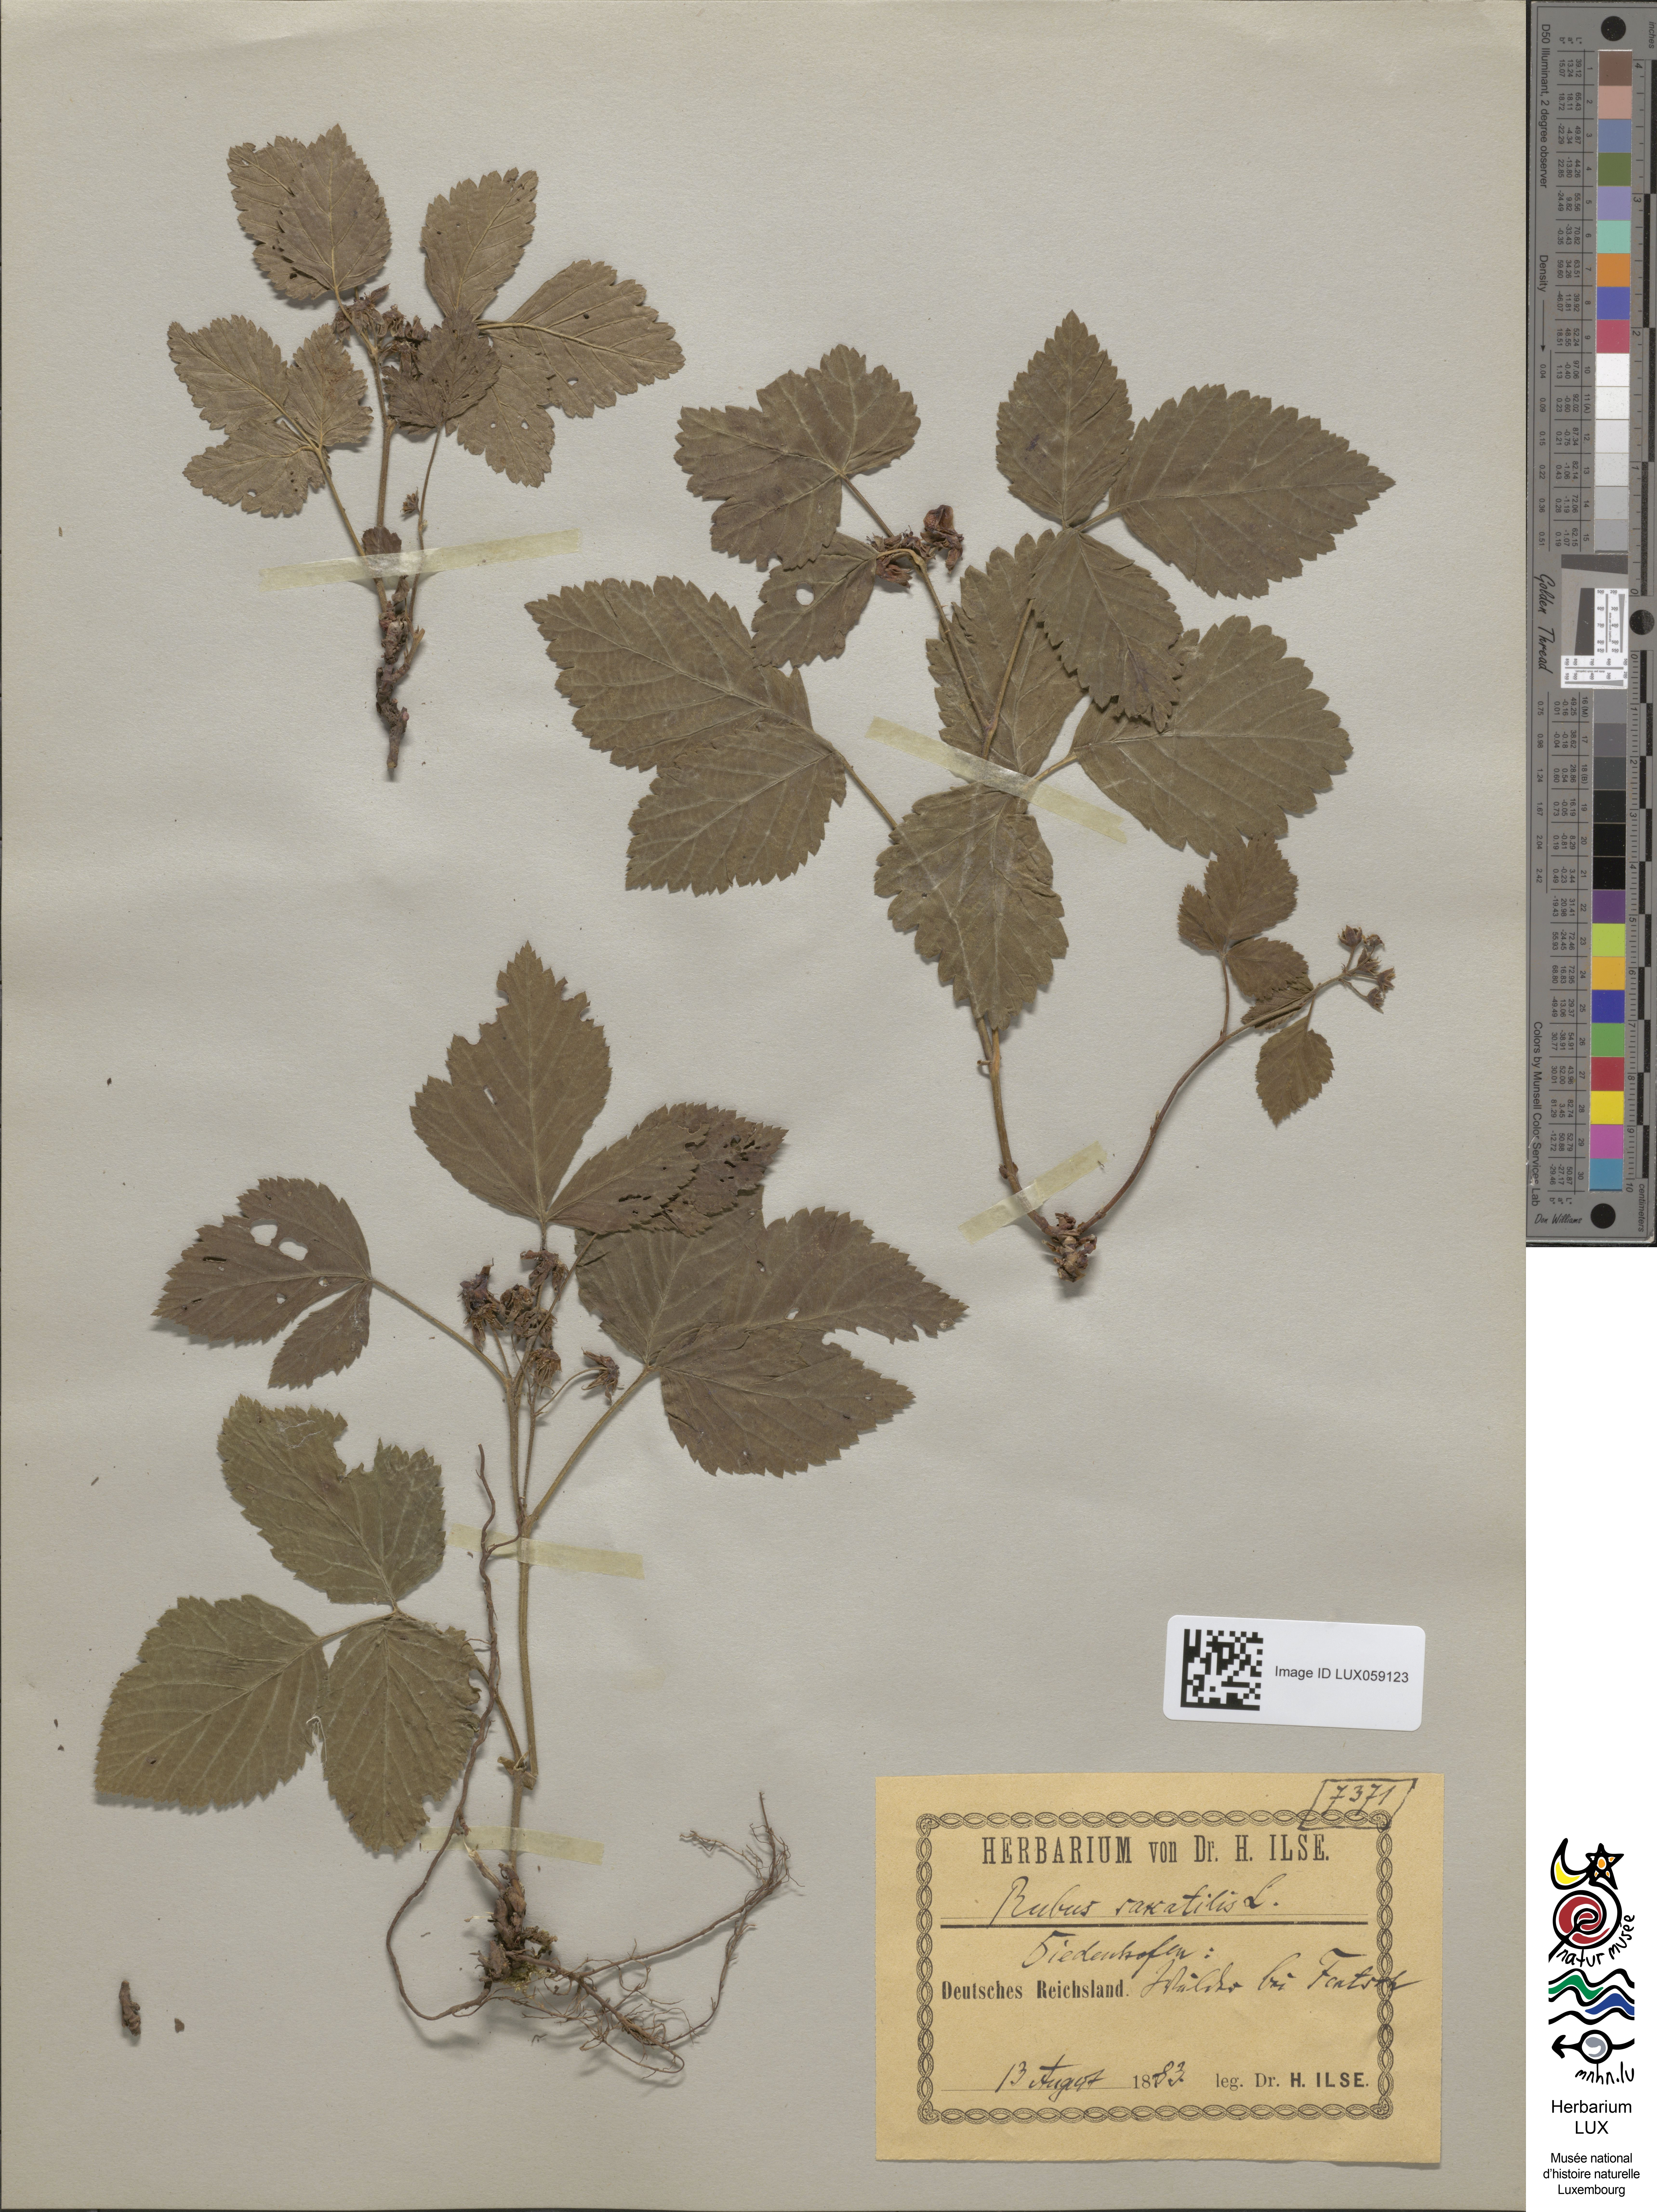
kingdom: Plantae
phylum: Tracheophyta
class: Magnoliopsida
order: Rosales
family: Rosaceae
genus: Rubus
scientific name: Rubus saxatilis
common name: Stone bramble
